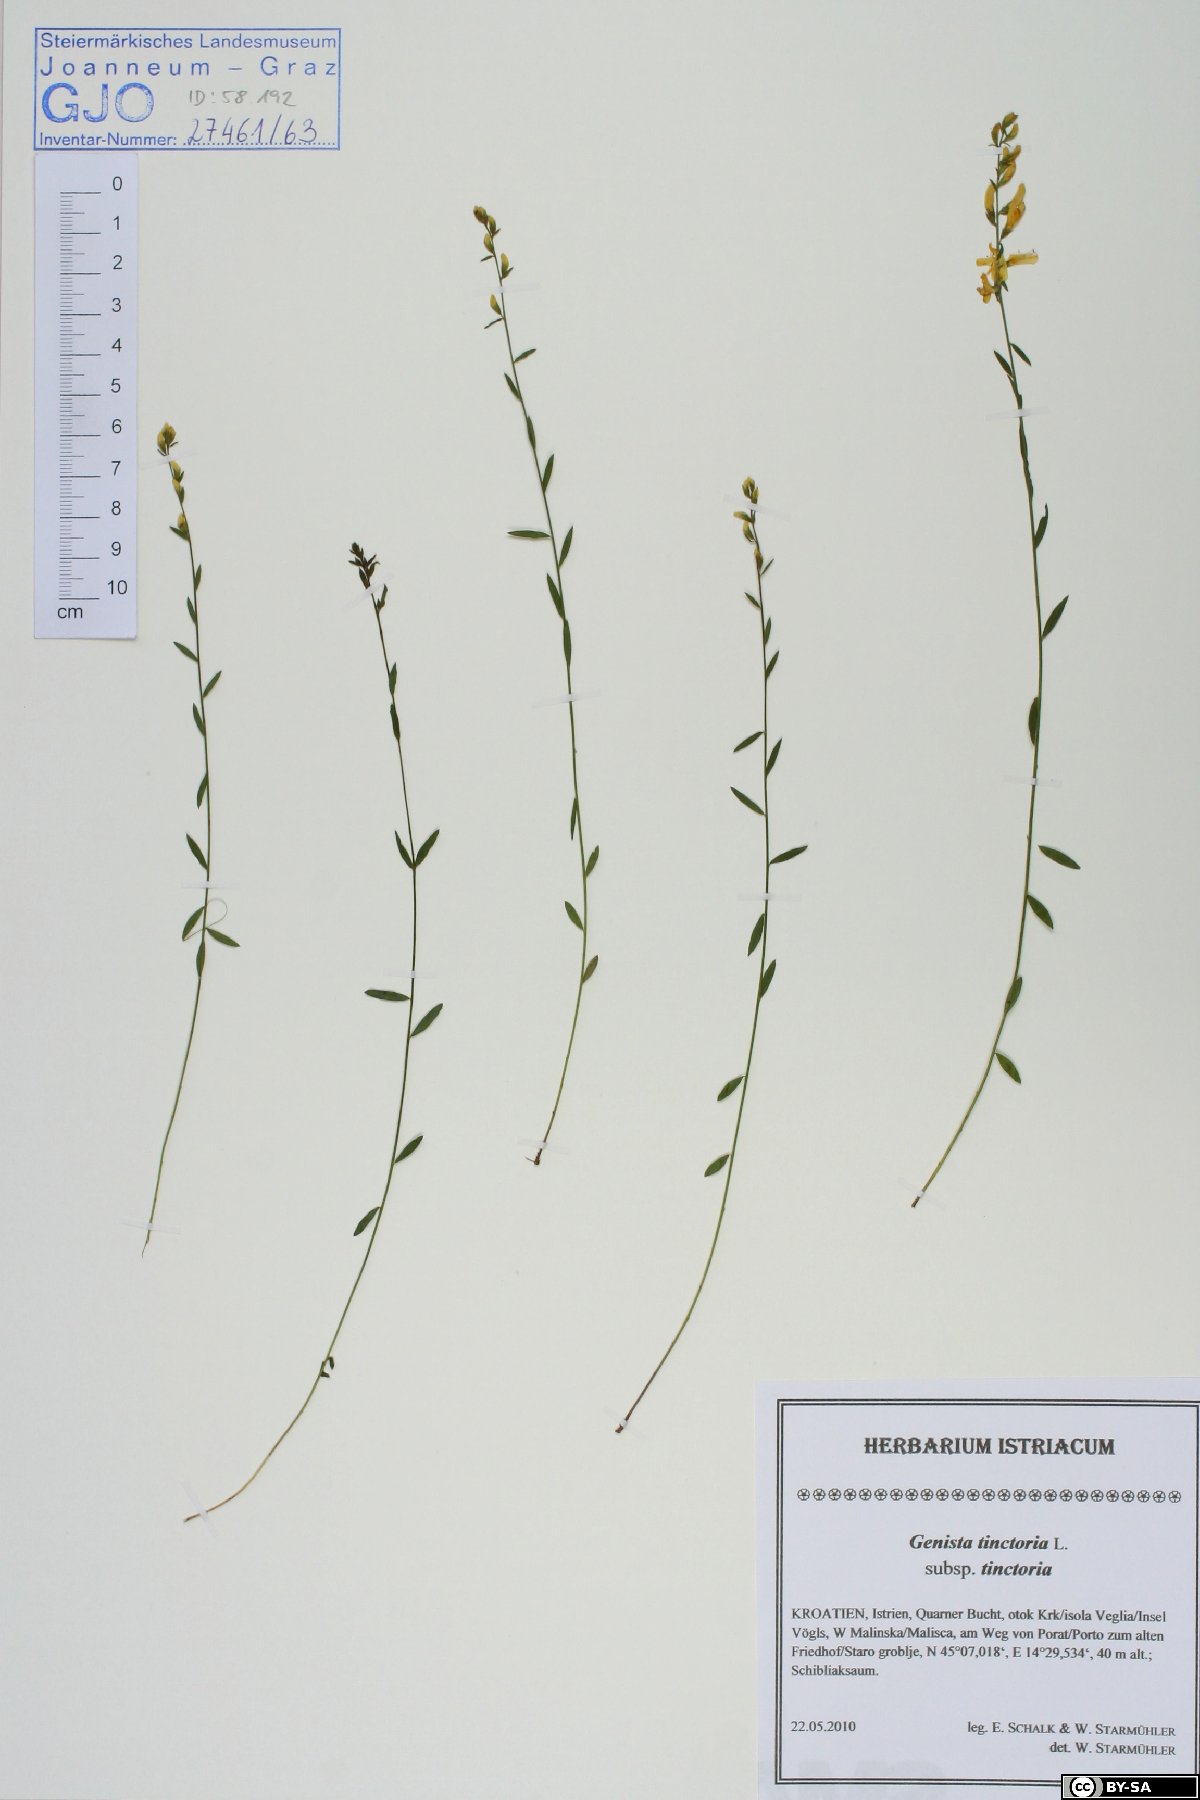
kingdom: Plantae
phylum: Tracheophyta
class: Magnoliopsida
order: Fabales
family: Fabaceae
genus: Genista
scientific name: Genista tinctoria
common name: Dyer's greenweed
